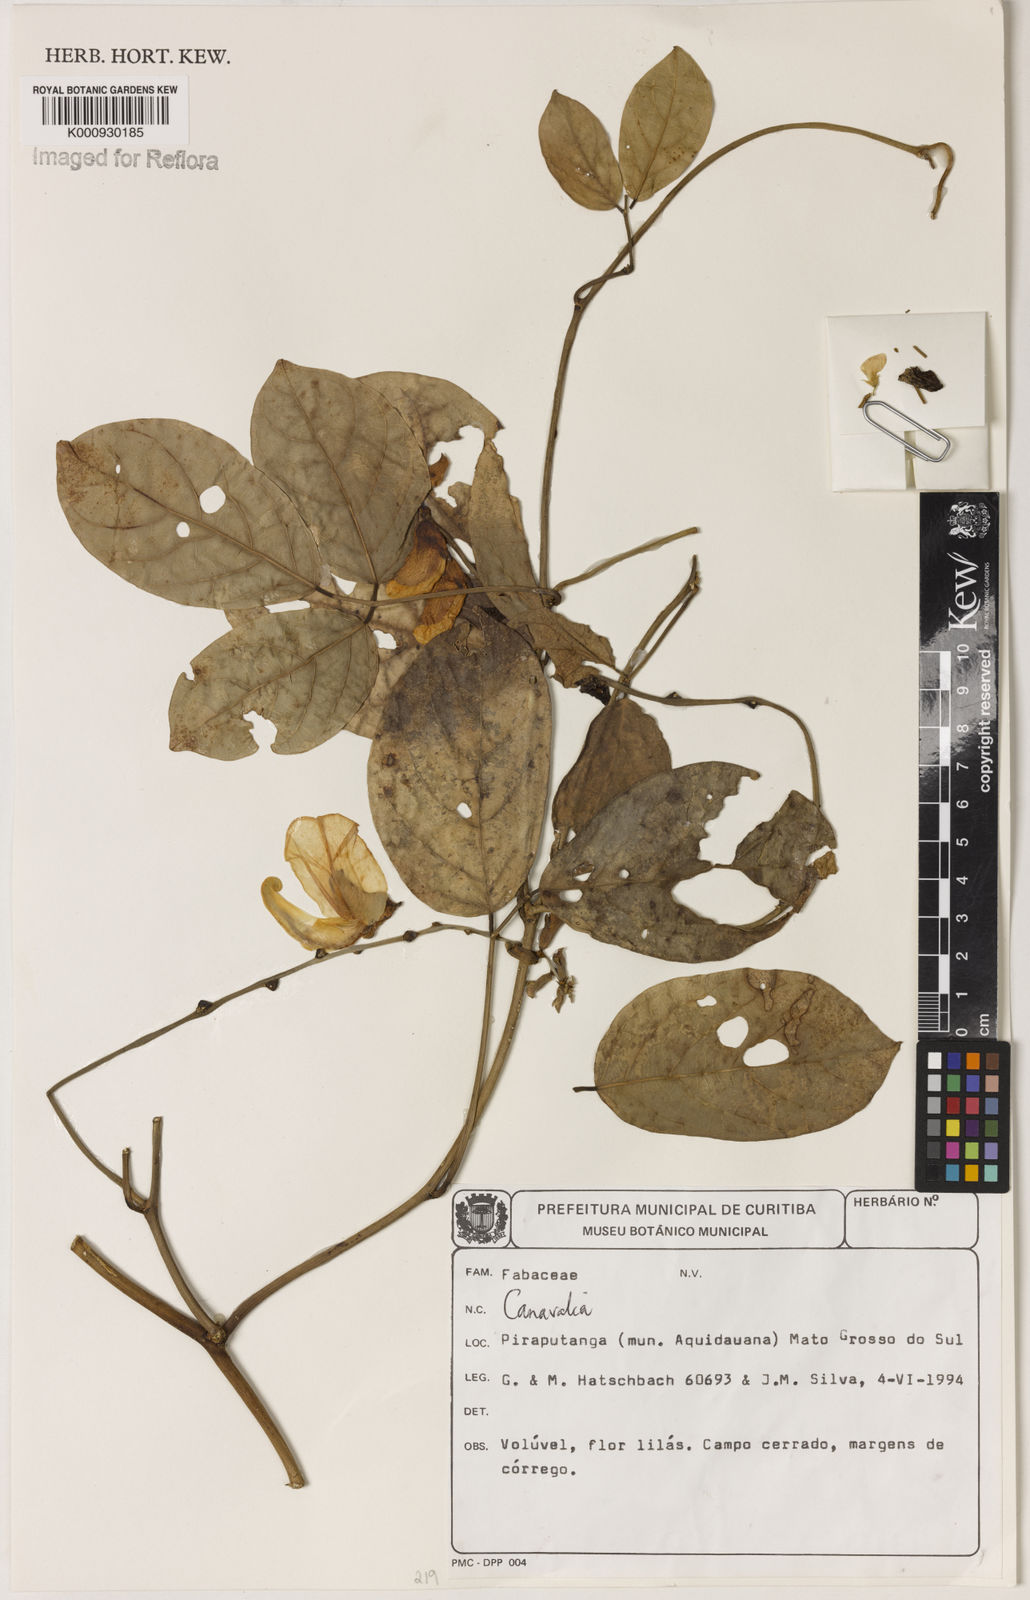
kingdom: Plantae
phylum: Tracheophyta
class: Magnoliopsida
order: Fabales
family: Fabaceae
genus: Canavalia
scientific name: Canavalia
